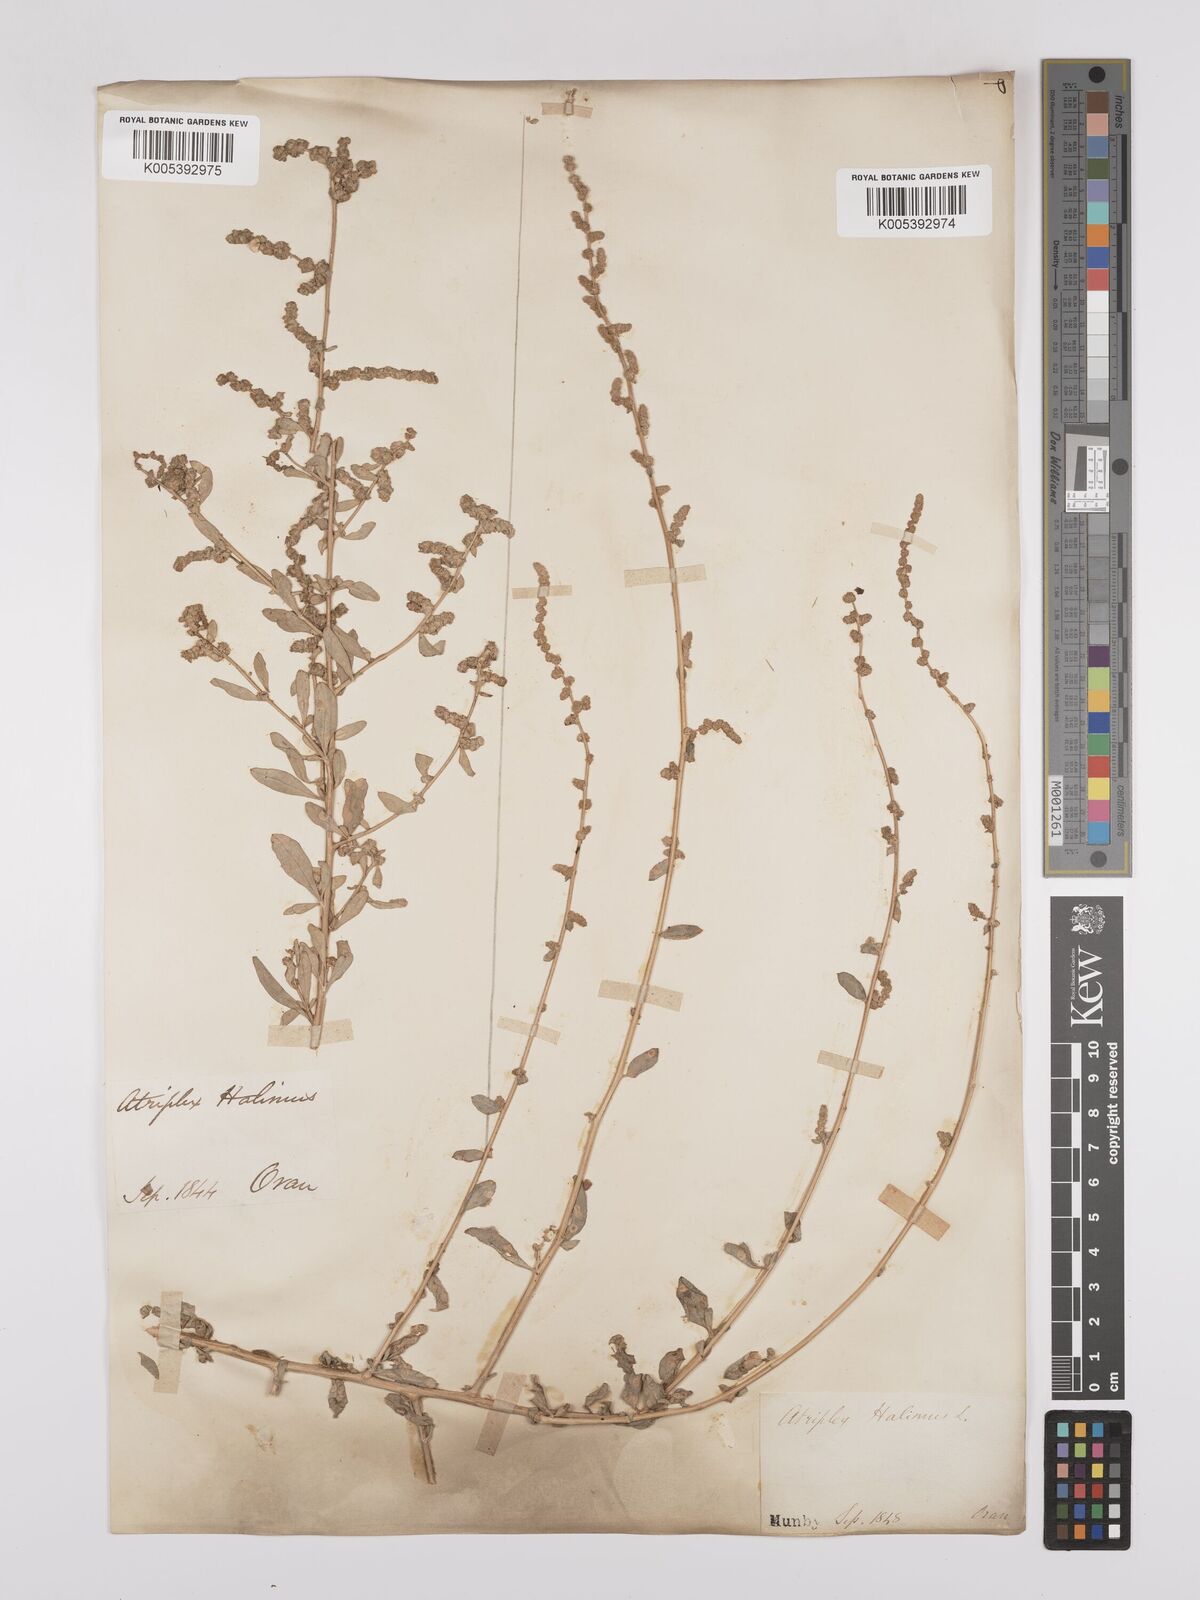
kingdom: Plantae
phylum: Tracheophyta
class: Magnoliopsida
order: Caryophyllales
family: Amaranthaceae
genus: Atriplex
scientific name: Atriplex
